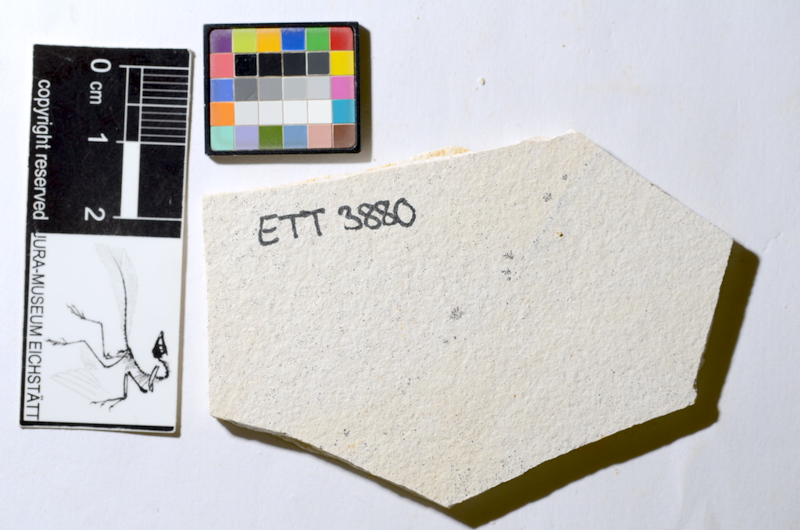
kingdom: Animalia
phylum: Chordata
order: Salmoniformes
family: Orthogonikleithridae
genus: Orthogonikleithrus
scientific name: Orthogonikleithrus hoelli
